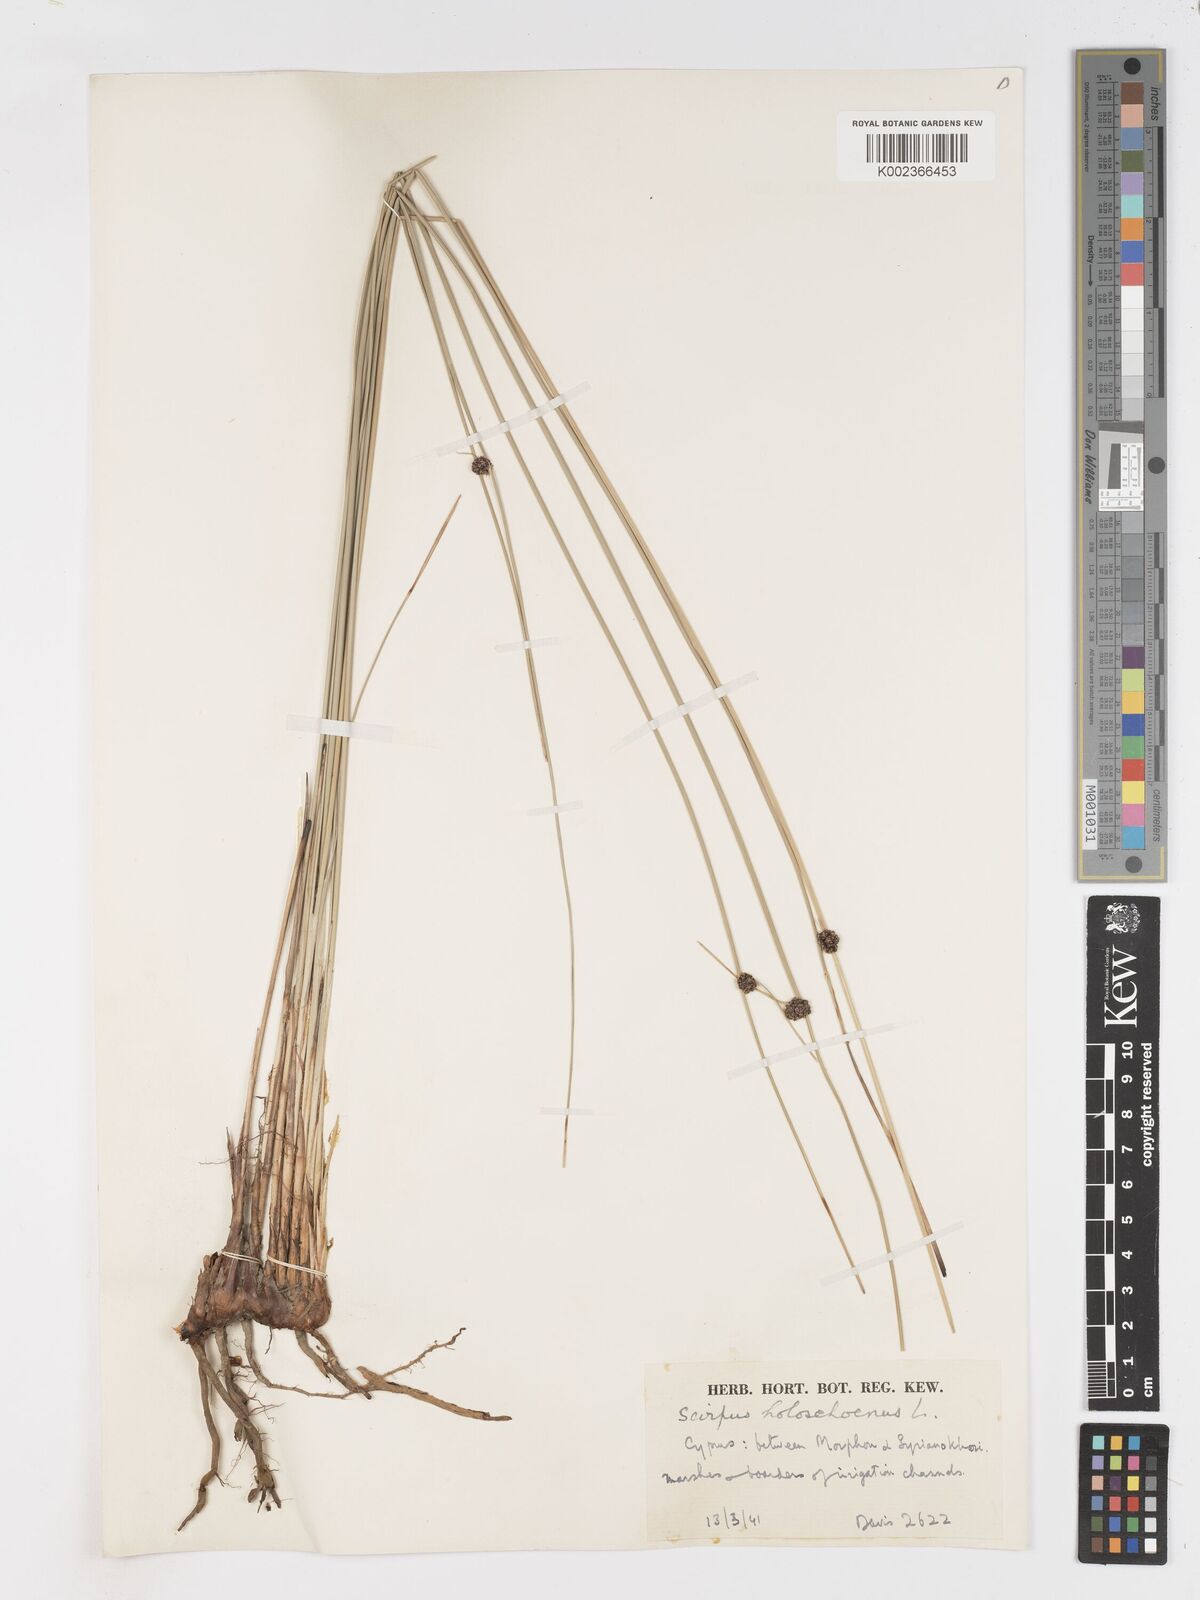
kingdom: Plantae
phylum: Tracheophyta
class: Liliopsida
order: Poales
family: Cyperaceae
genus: Scirpoides
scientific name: Scirpoides holoschoenus
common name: Round-headed club-rush
